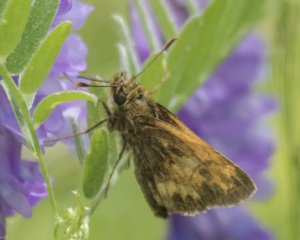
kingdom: Animalia
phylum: Arthropoda
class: Insecta
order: Lepidoptera
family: Hesperiidae
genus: Lon
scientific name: Lon hobomok
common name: Hobomok Skipper
